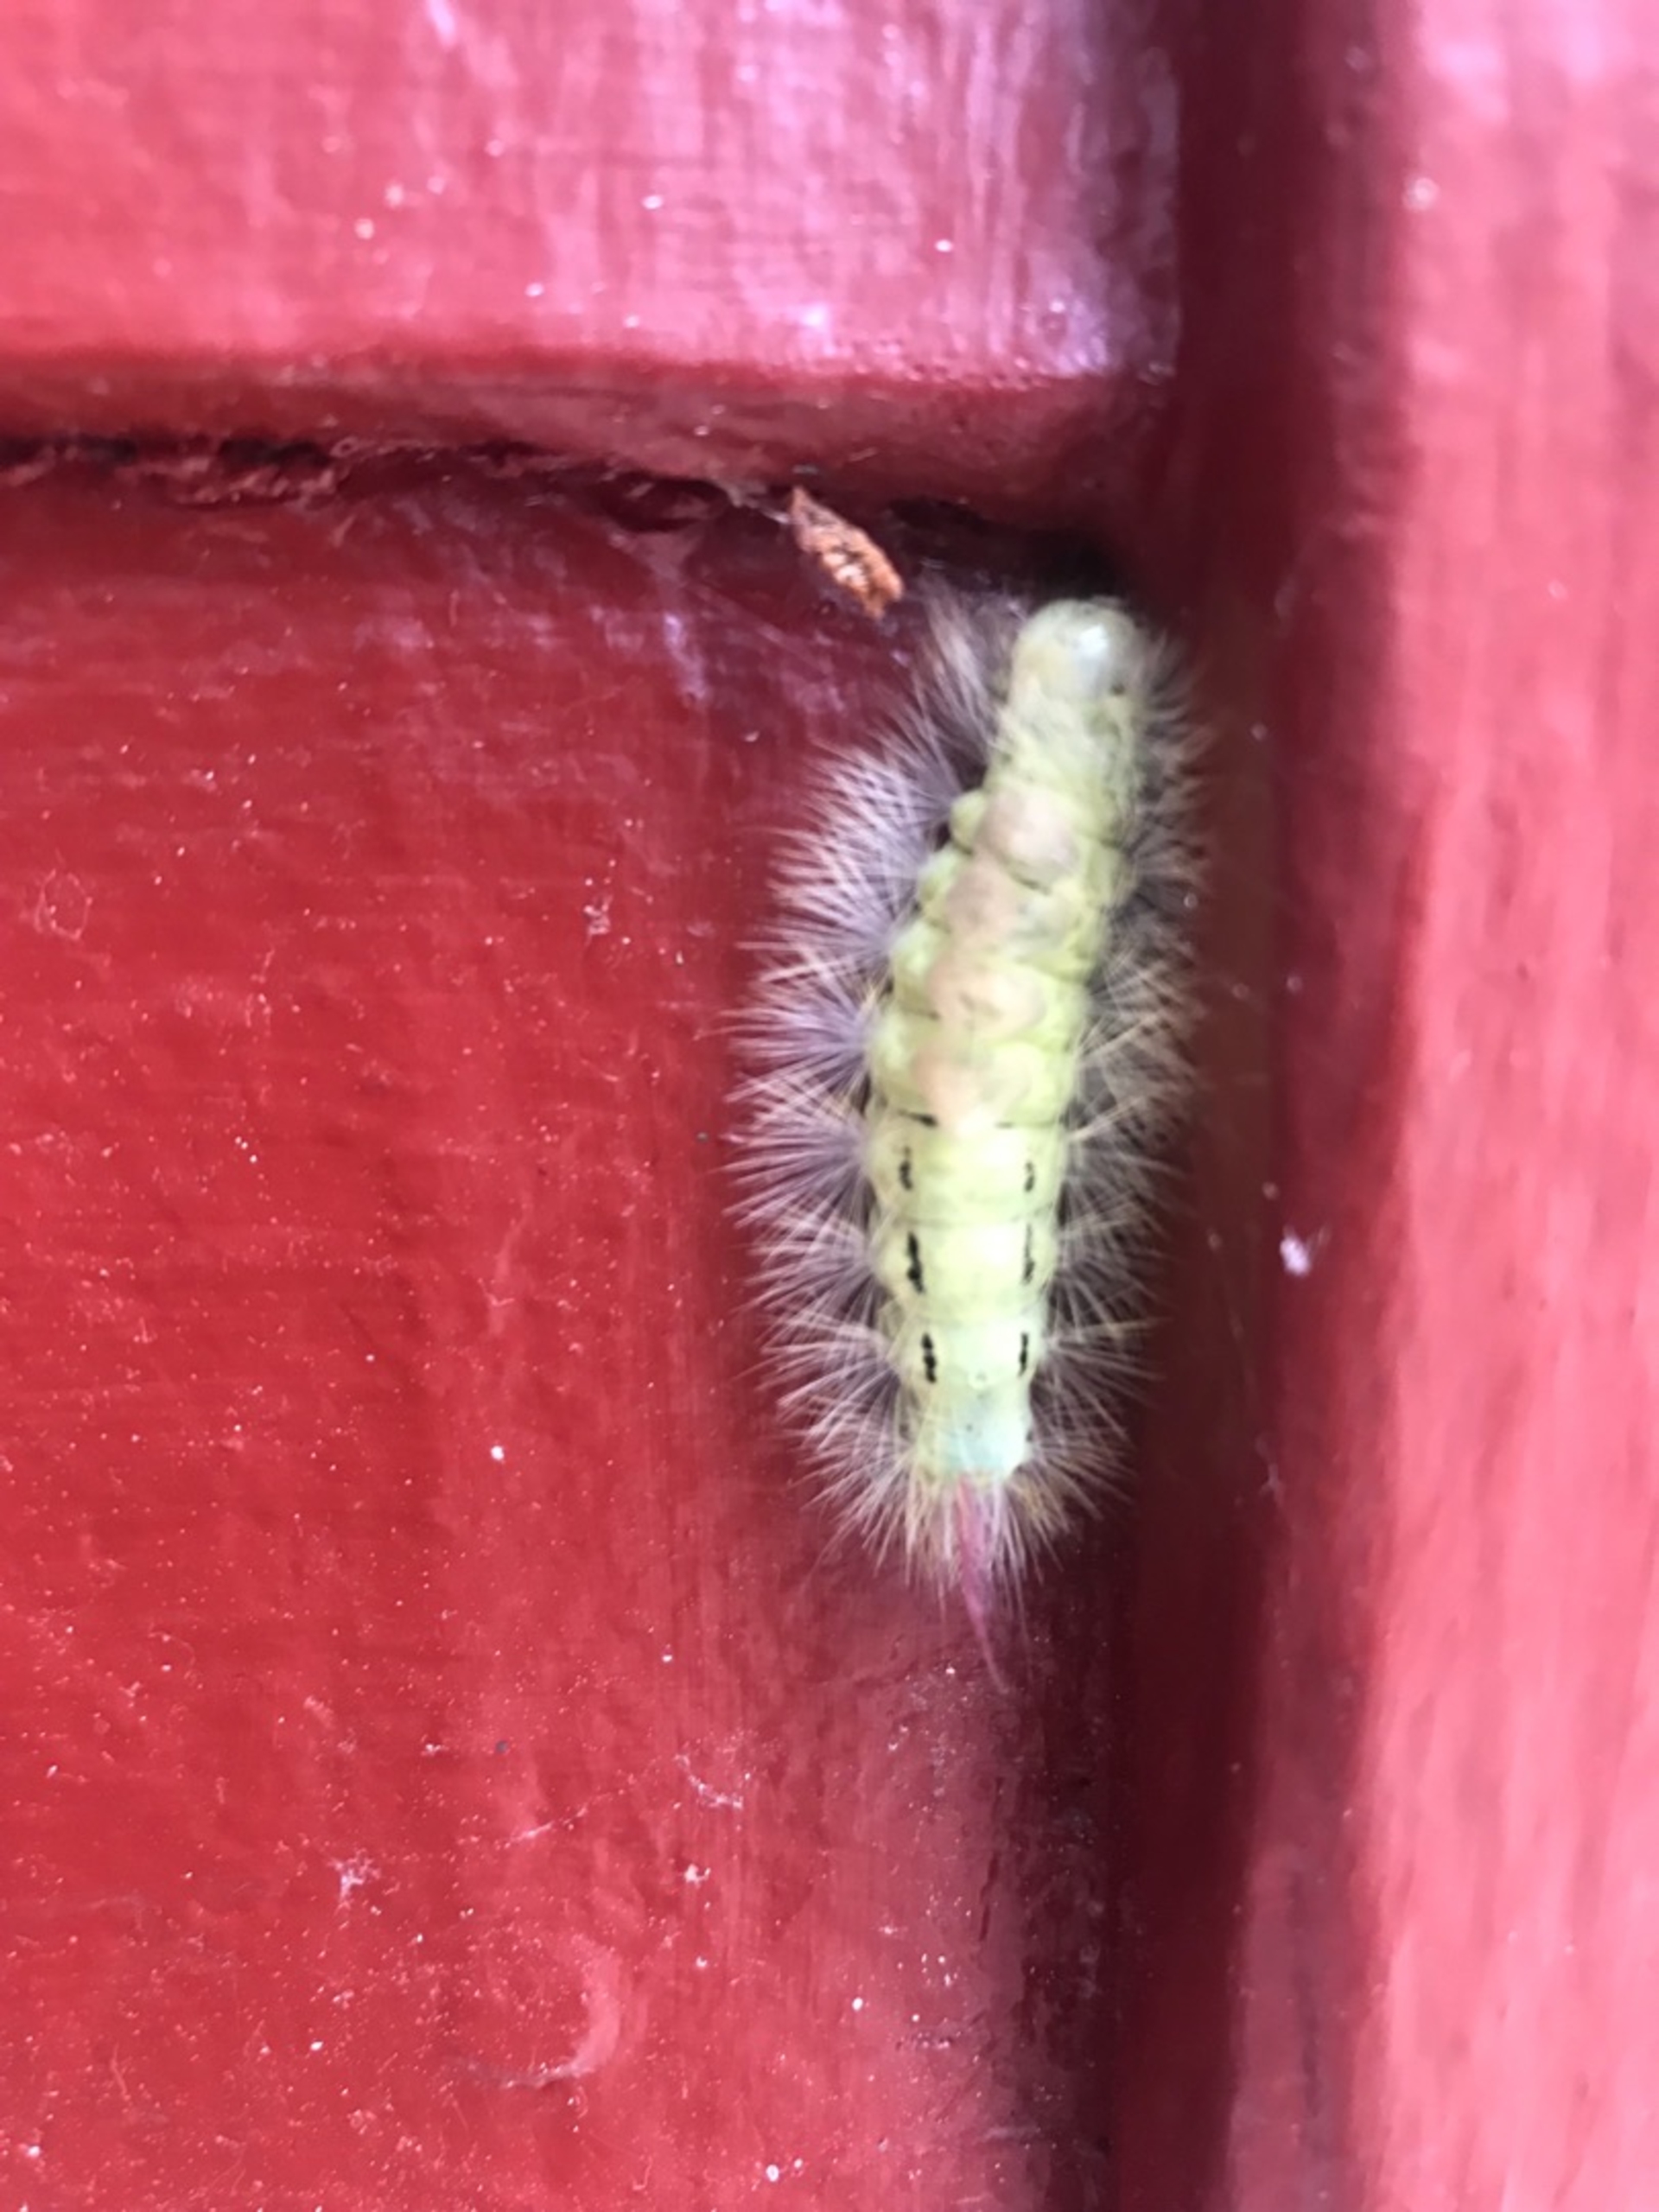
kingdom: Animalia
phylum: Arthropoda
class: Insecta
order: Lepidoptera
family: Erebidae
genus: Calliteara
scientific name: Calliteara pudibunda
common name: Bøgenonne
